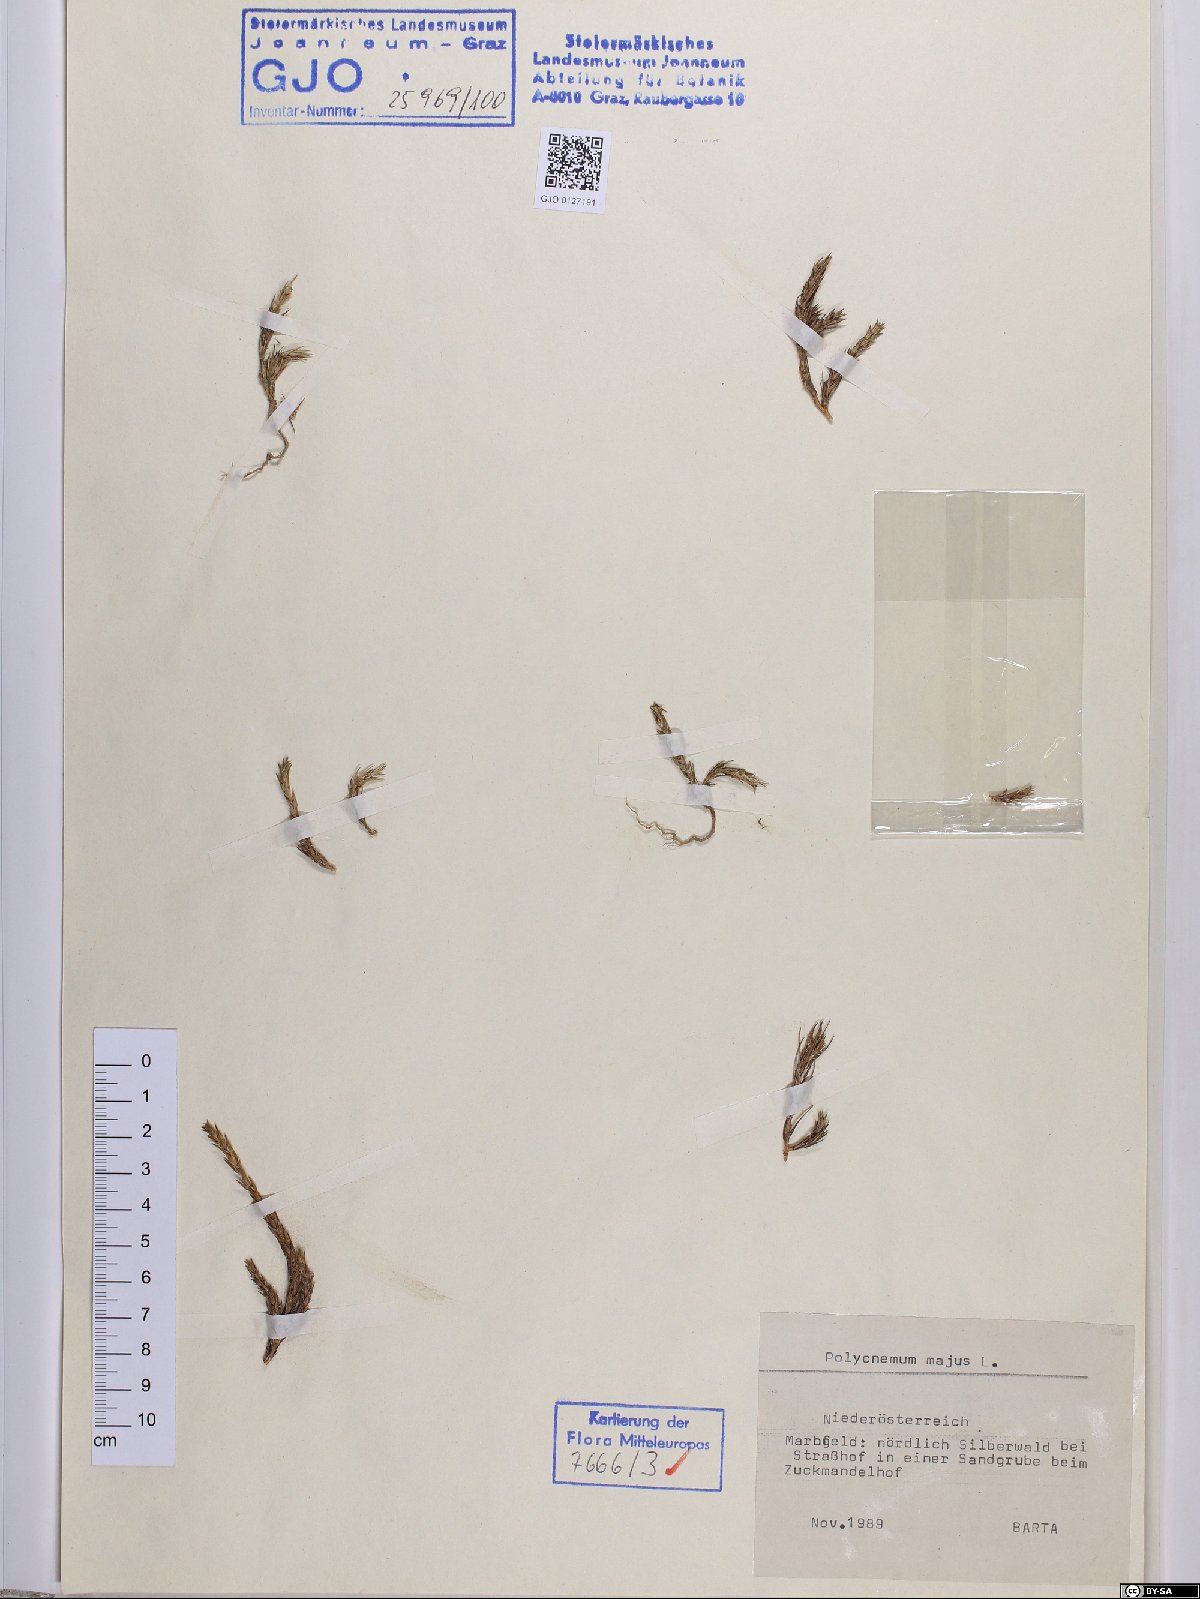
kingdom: Plantae
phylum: Tracheophyta
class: Magnoliopsida
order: Caryophyllales
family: Amaranthaceae
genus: Polycnemum
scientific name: Polycnemum majus
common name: Giant needleleaf
